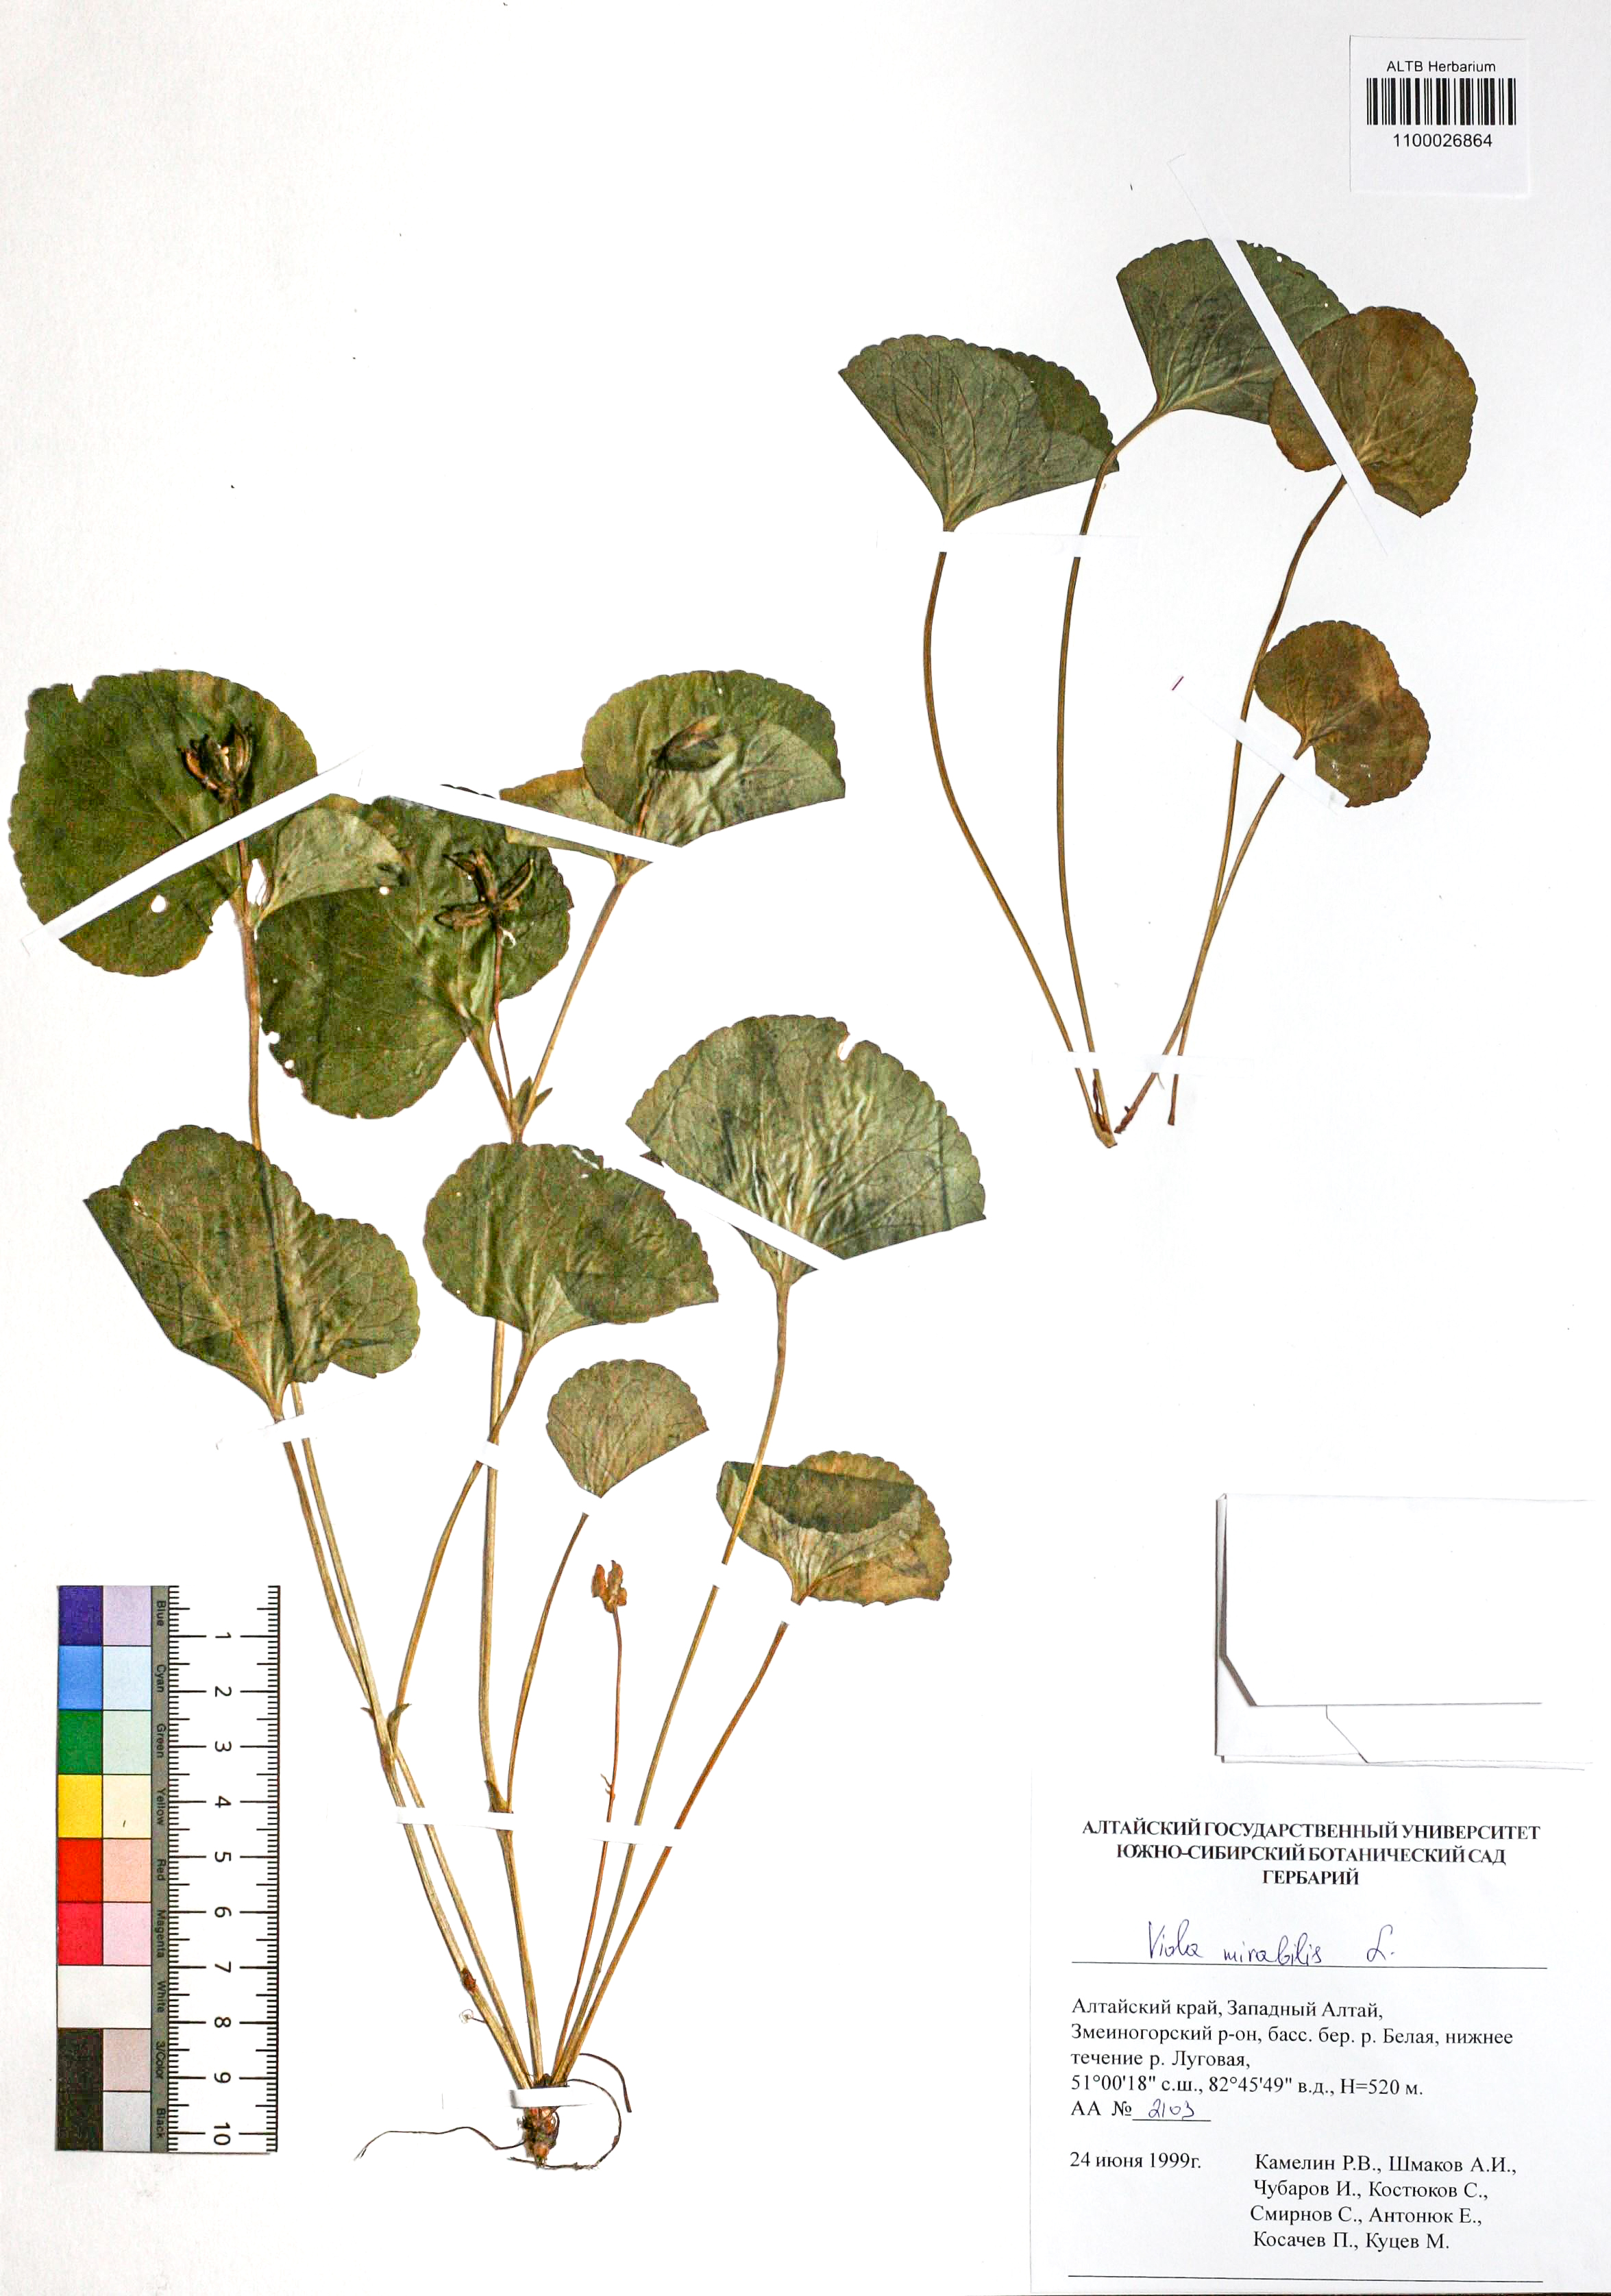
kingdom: Plantae
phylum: Tracheophyta
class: Magnoliopsida
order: Malpighiales
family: Violaceae
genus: Viola
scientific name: Viola mirabilis
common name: Wonder violet
